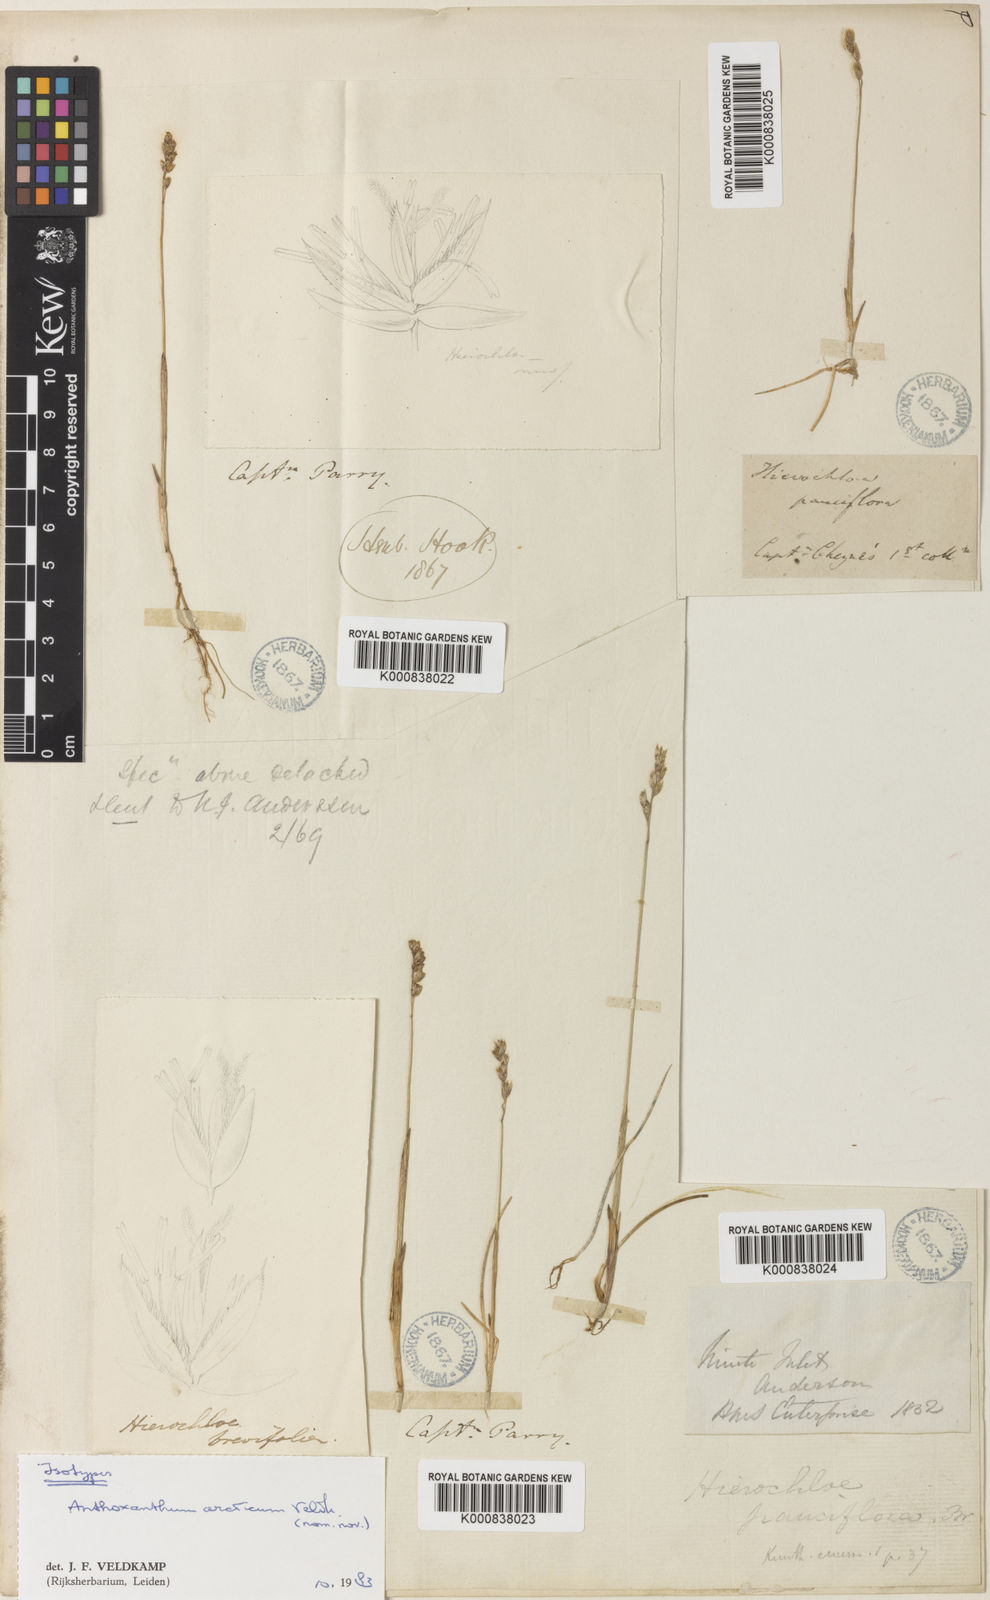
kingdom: Plantae
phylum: Tracheophyta
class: Liliopsida
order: Poales
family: Poaceae
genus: Anthoxanthum
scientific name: Anthoxanthum arcticum
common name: Arctic sweetgrass
